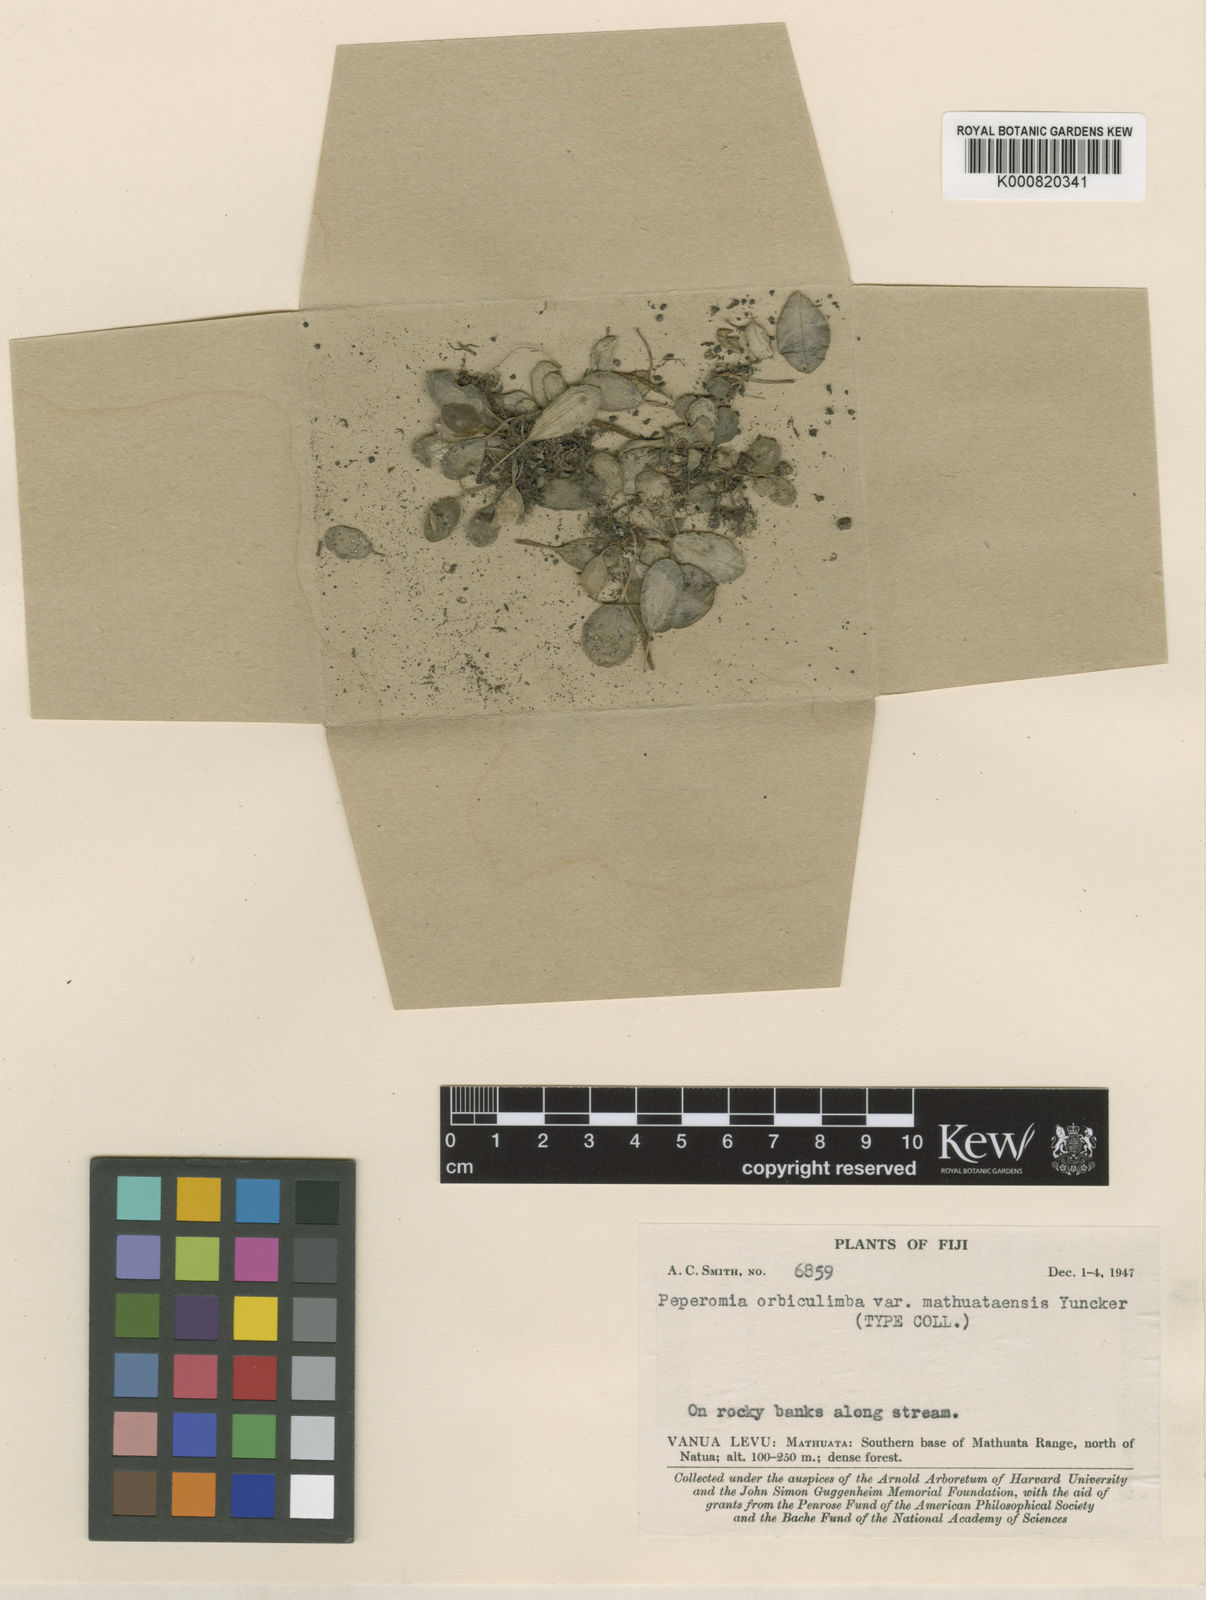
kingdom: Plantae
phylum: Tracheophyta
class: Magnoliopsida
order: Piperales
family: Piperaceae
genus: Peperomia
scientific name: Peperomia orbiculimba
